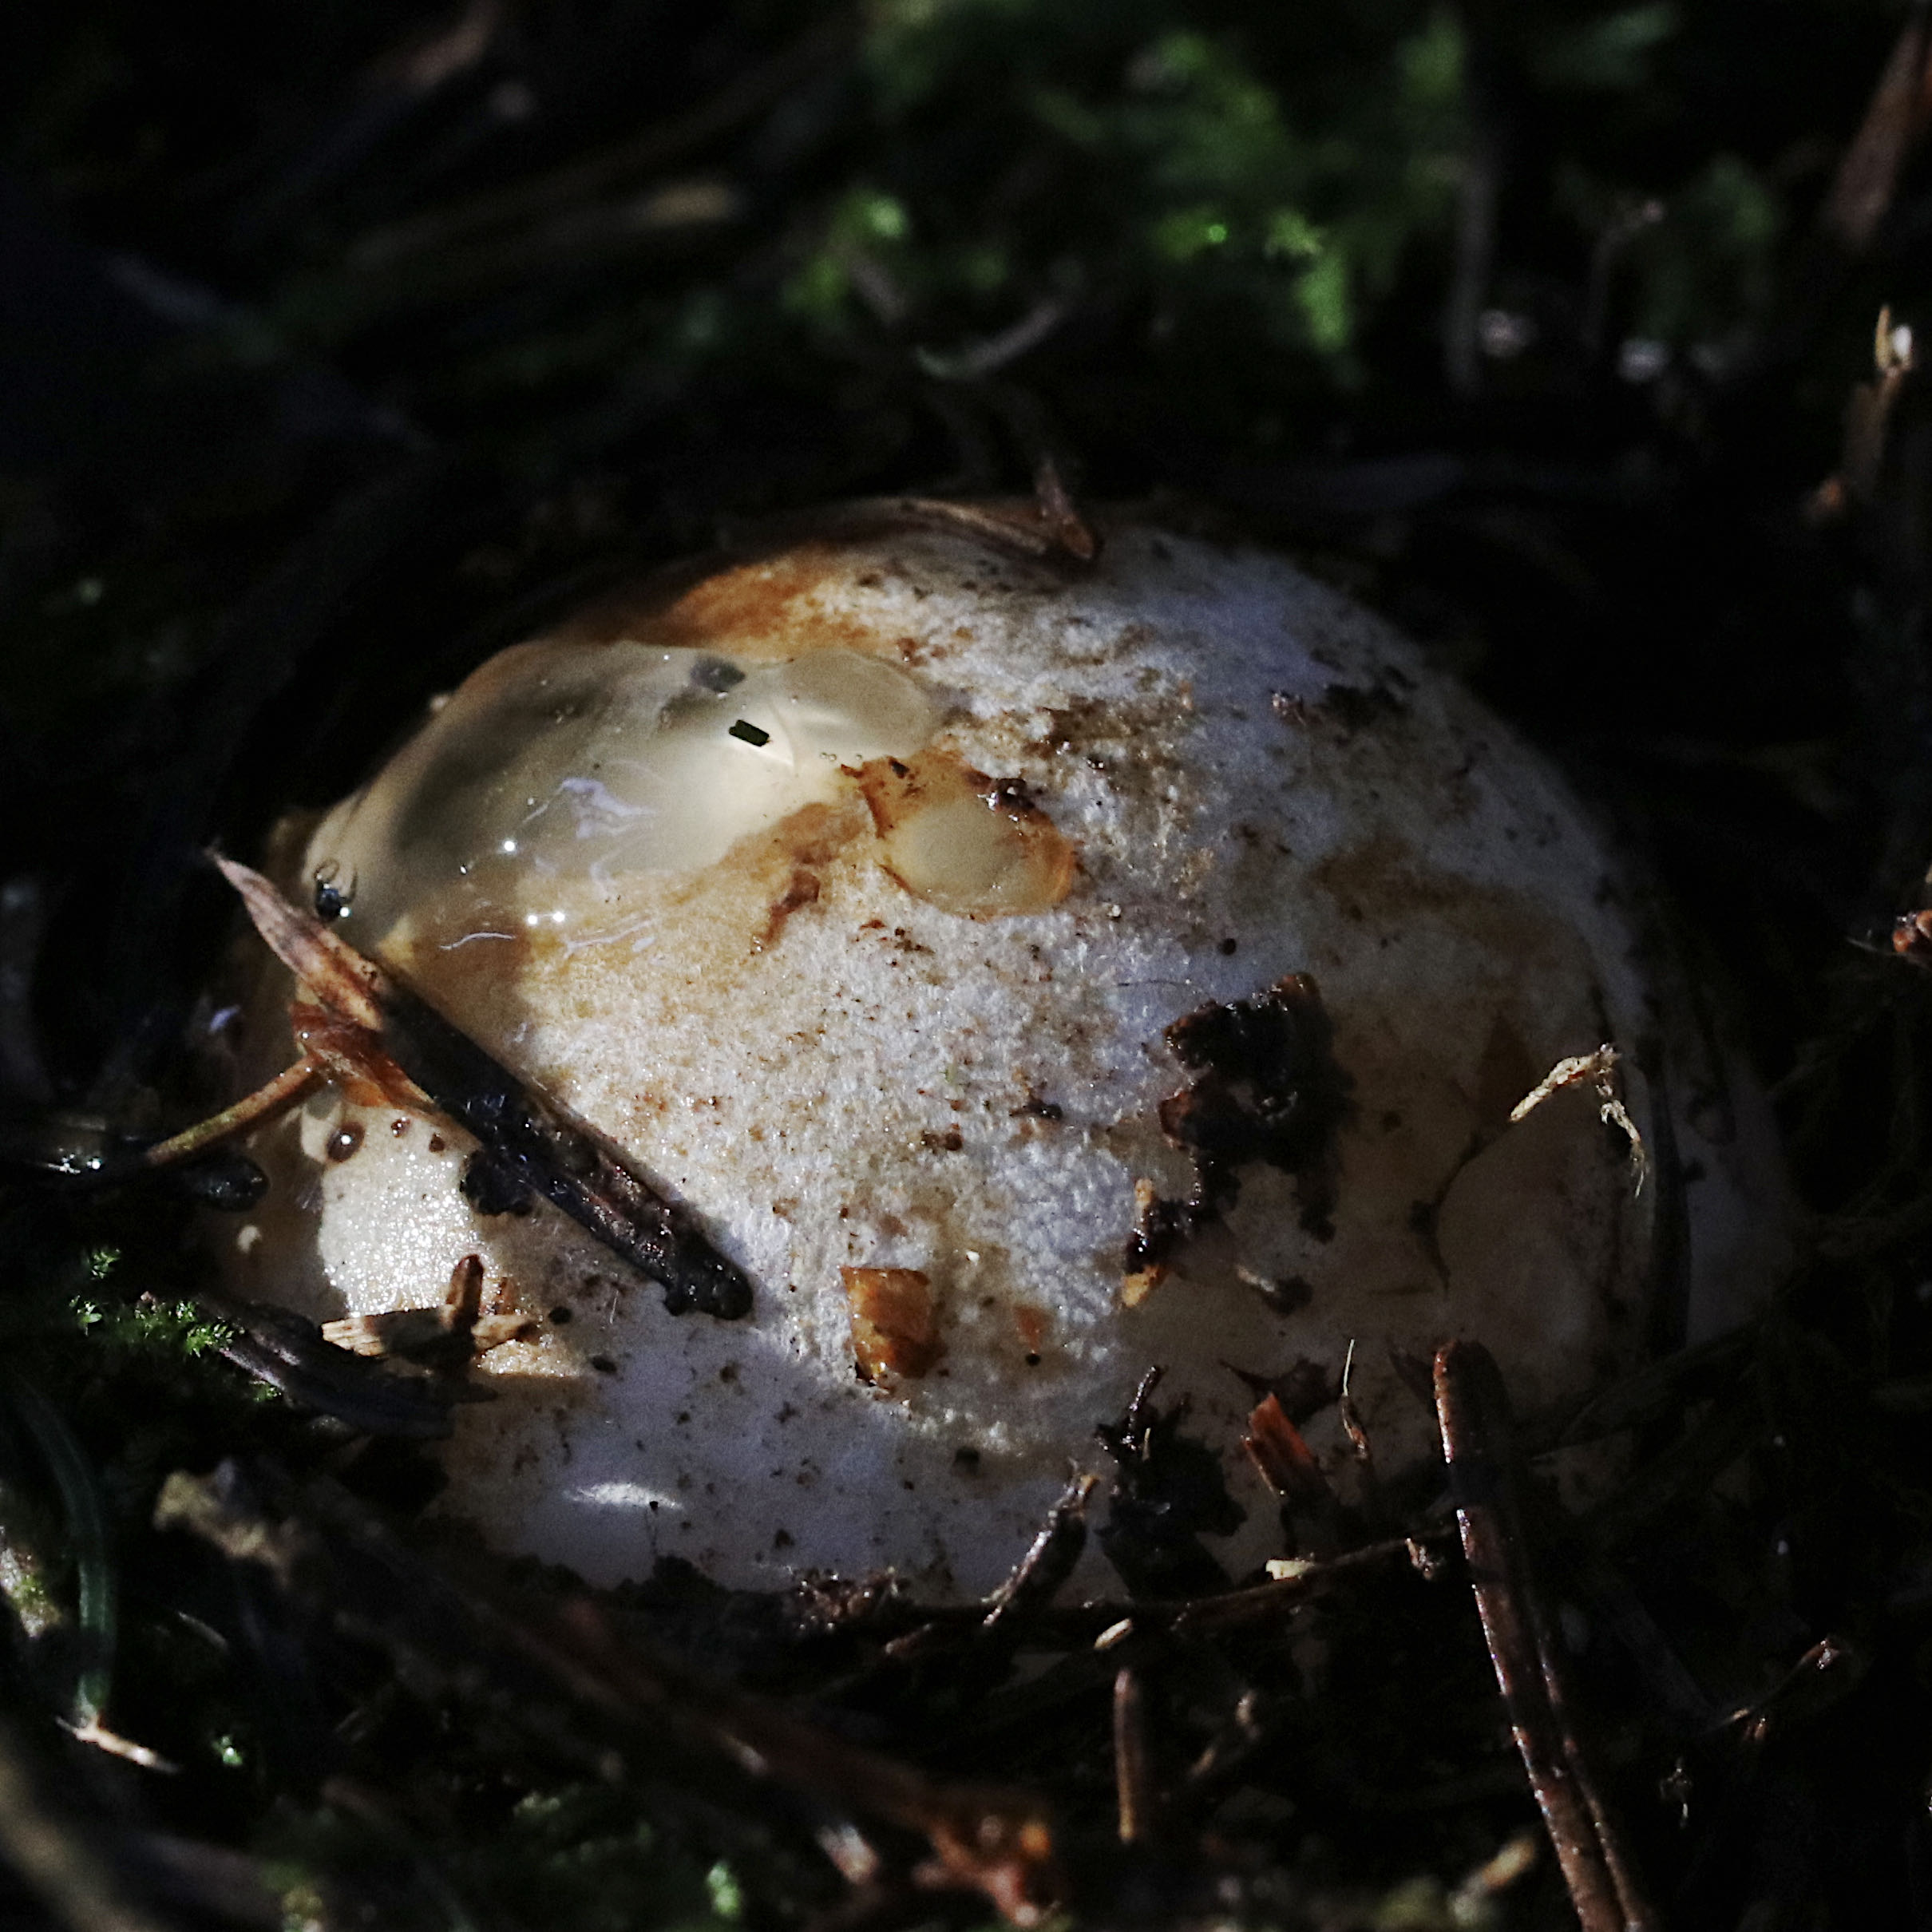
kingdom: Fungi
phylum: Basidiomycota
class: Agaricomycetes
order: Phallales
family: Phallaceae
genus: Phallus
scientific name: Phallus impudicus
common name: almindelig stinksvamp
